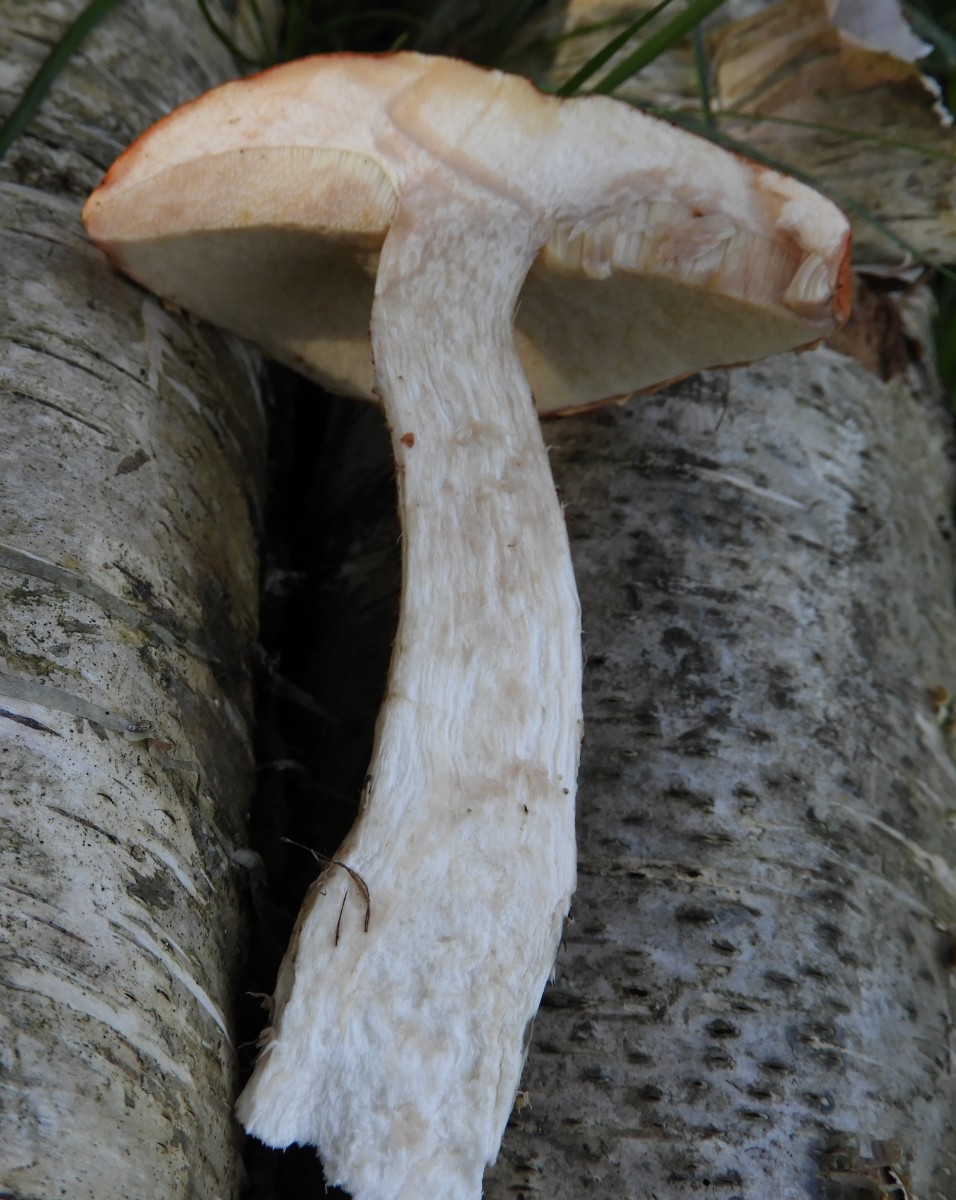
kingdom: Fungi
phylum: Basidiomycota
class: Agaricomycetes
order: Boletales
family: Boletaceae
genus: Leccinum
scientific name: Leccinum aurantiacum
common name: rustrød skælrørhat
